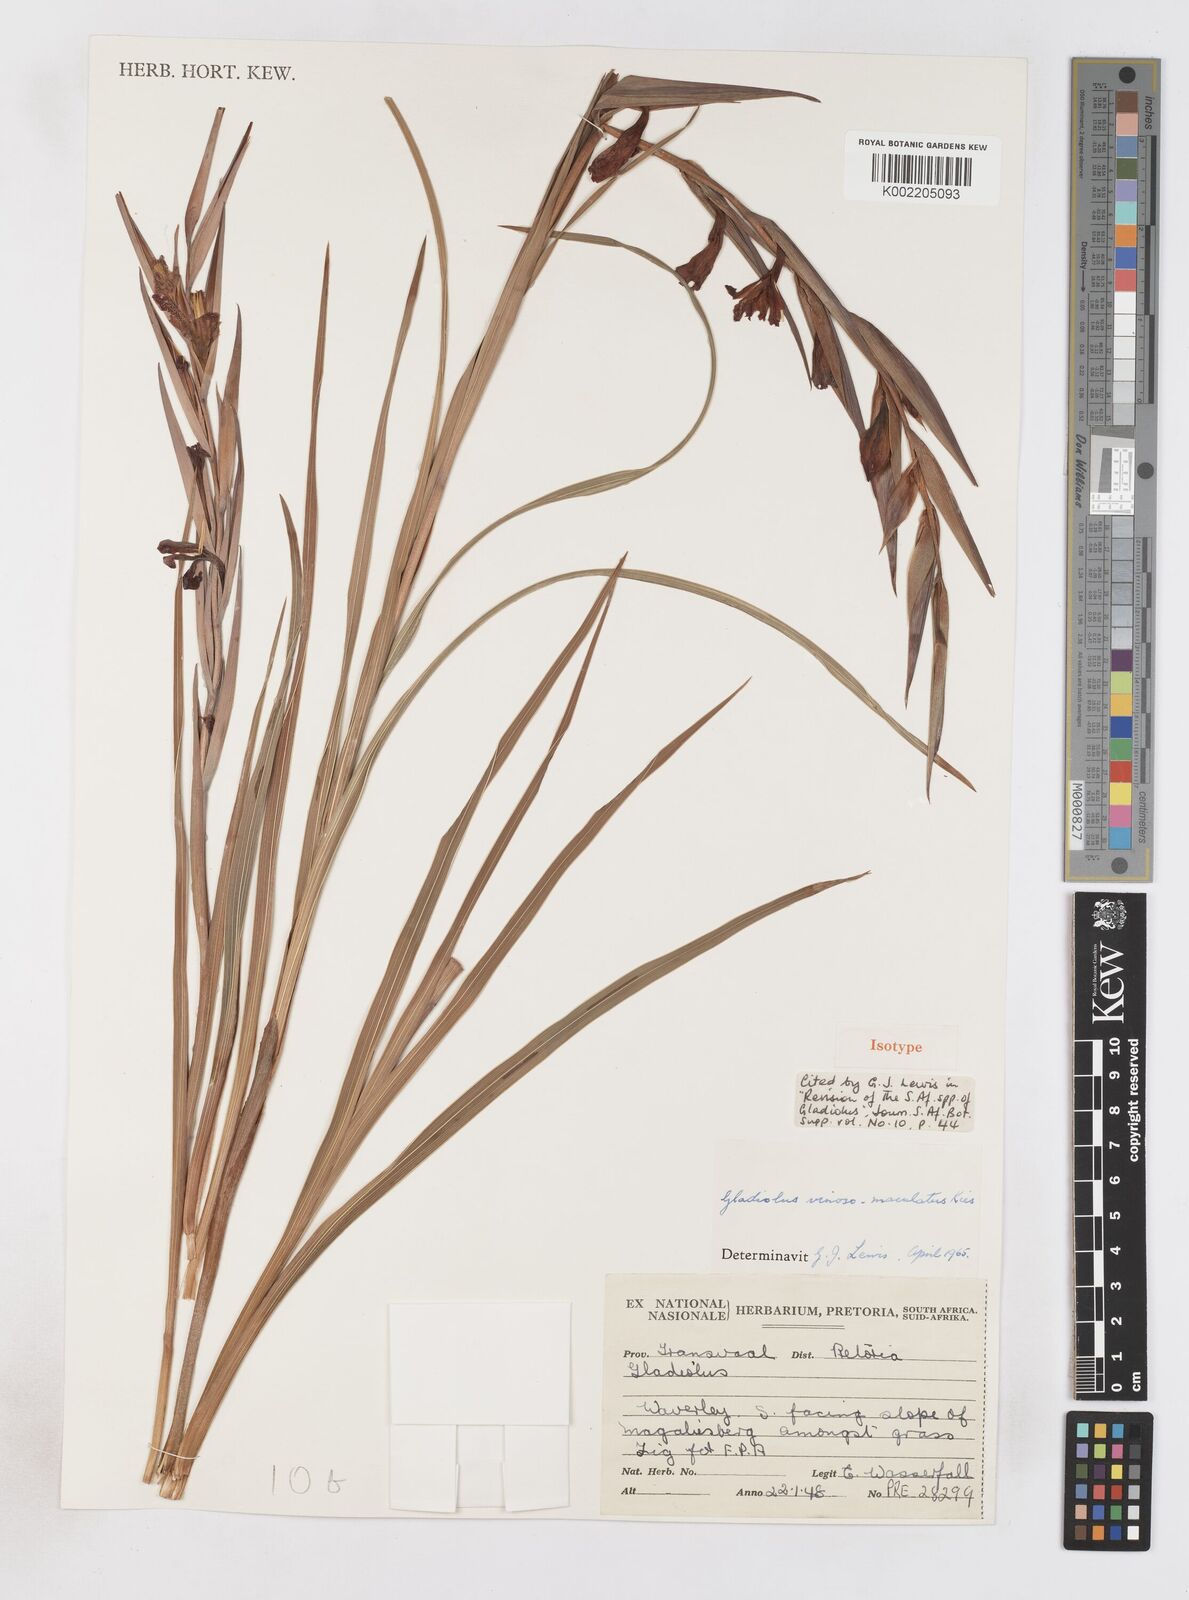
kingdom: Plantae
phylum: Tracheophyta
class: Liliopsida
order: Asparagales
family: Iridaceae
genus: Gladiolus
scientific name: Gladiolus vinosomaculatus
